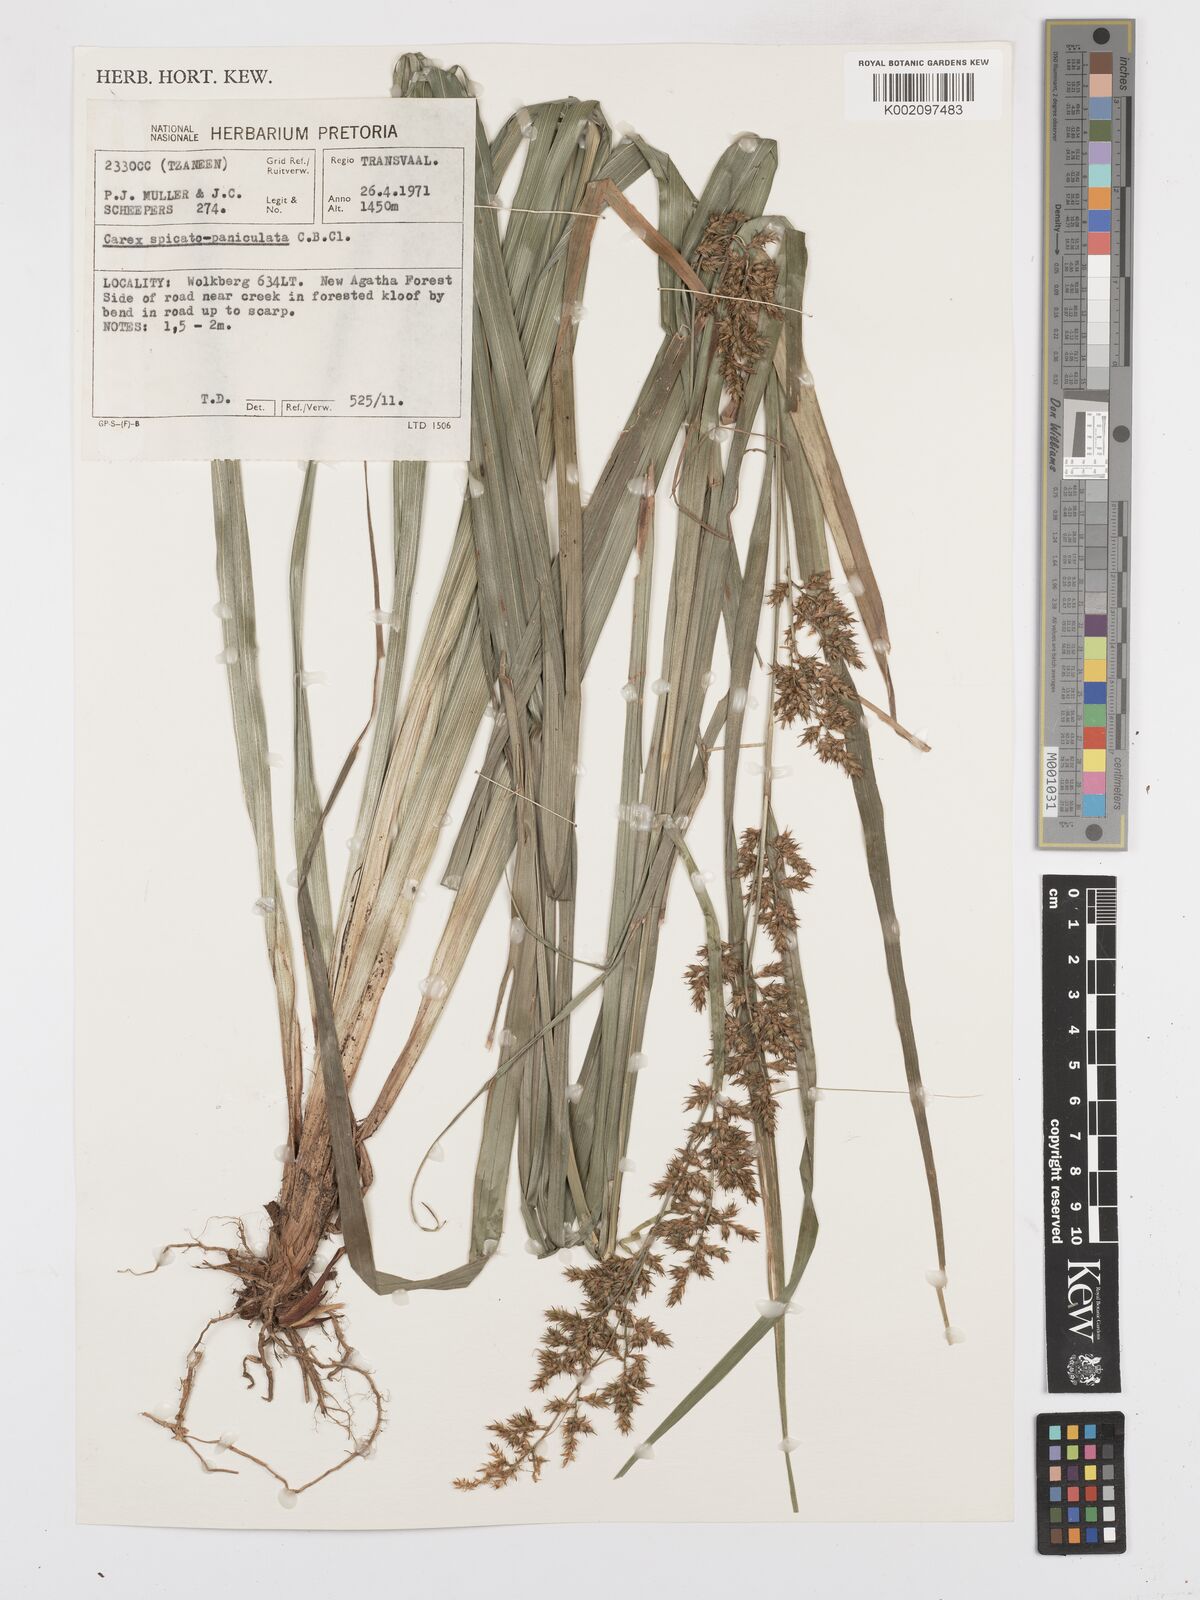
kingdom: Plantae
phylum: Tracheophyta
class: Liliopsida
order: Poales
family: Cyperaceae
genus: Carex
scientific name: Carex spicatopaniculata
